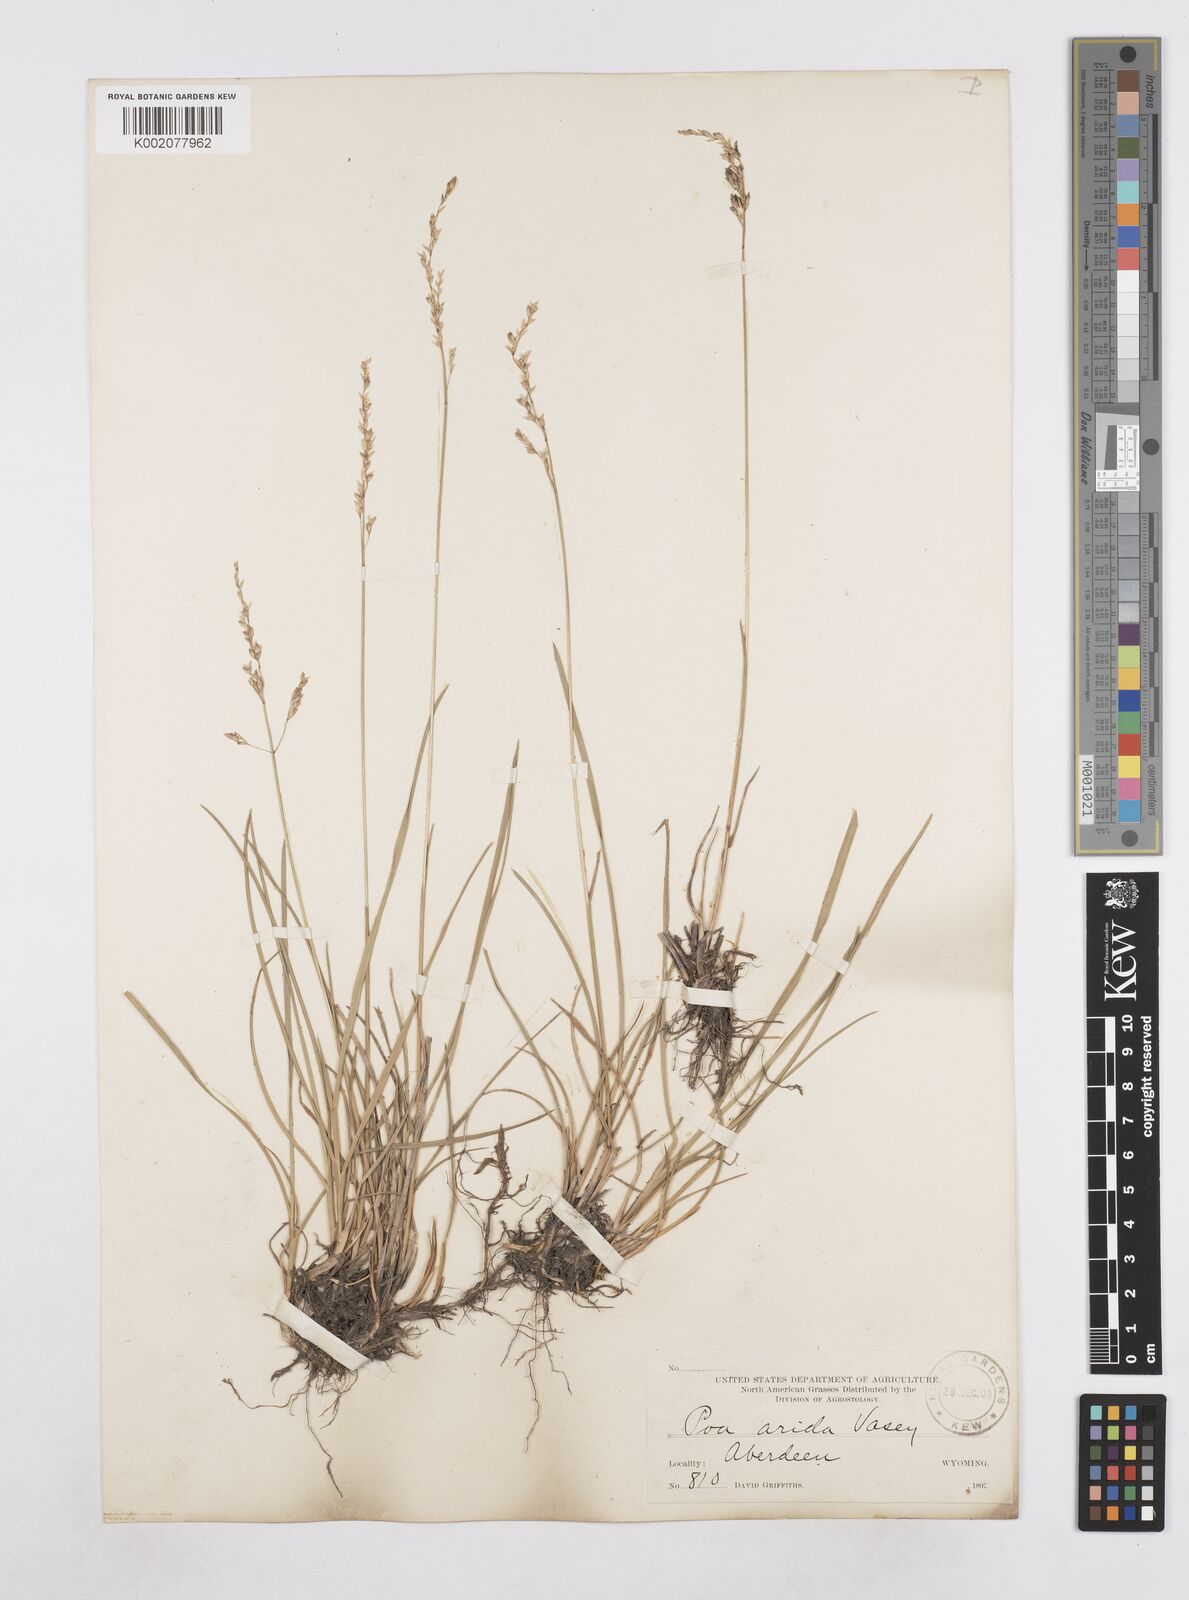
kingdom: Plantae
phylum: Tracheophyta
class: Liliopsida
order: Poales
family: Poaceae
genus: Poa
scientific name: Poa arida
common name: Plains bluegrass
